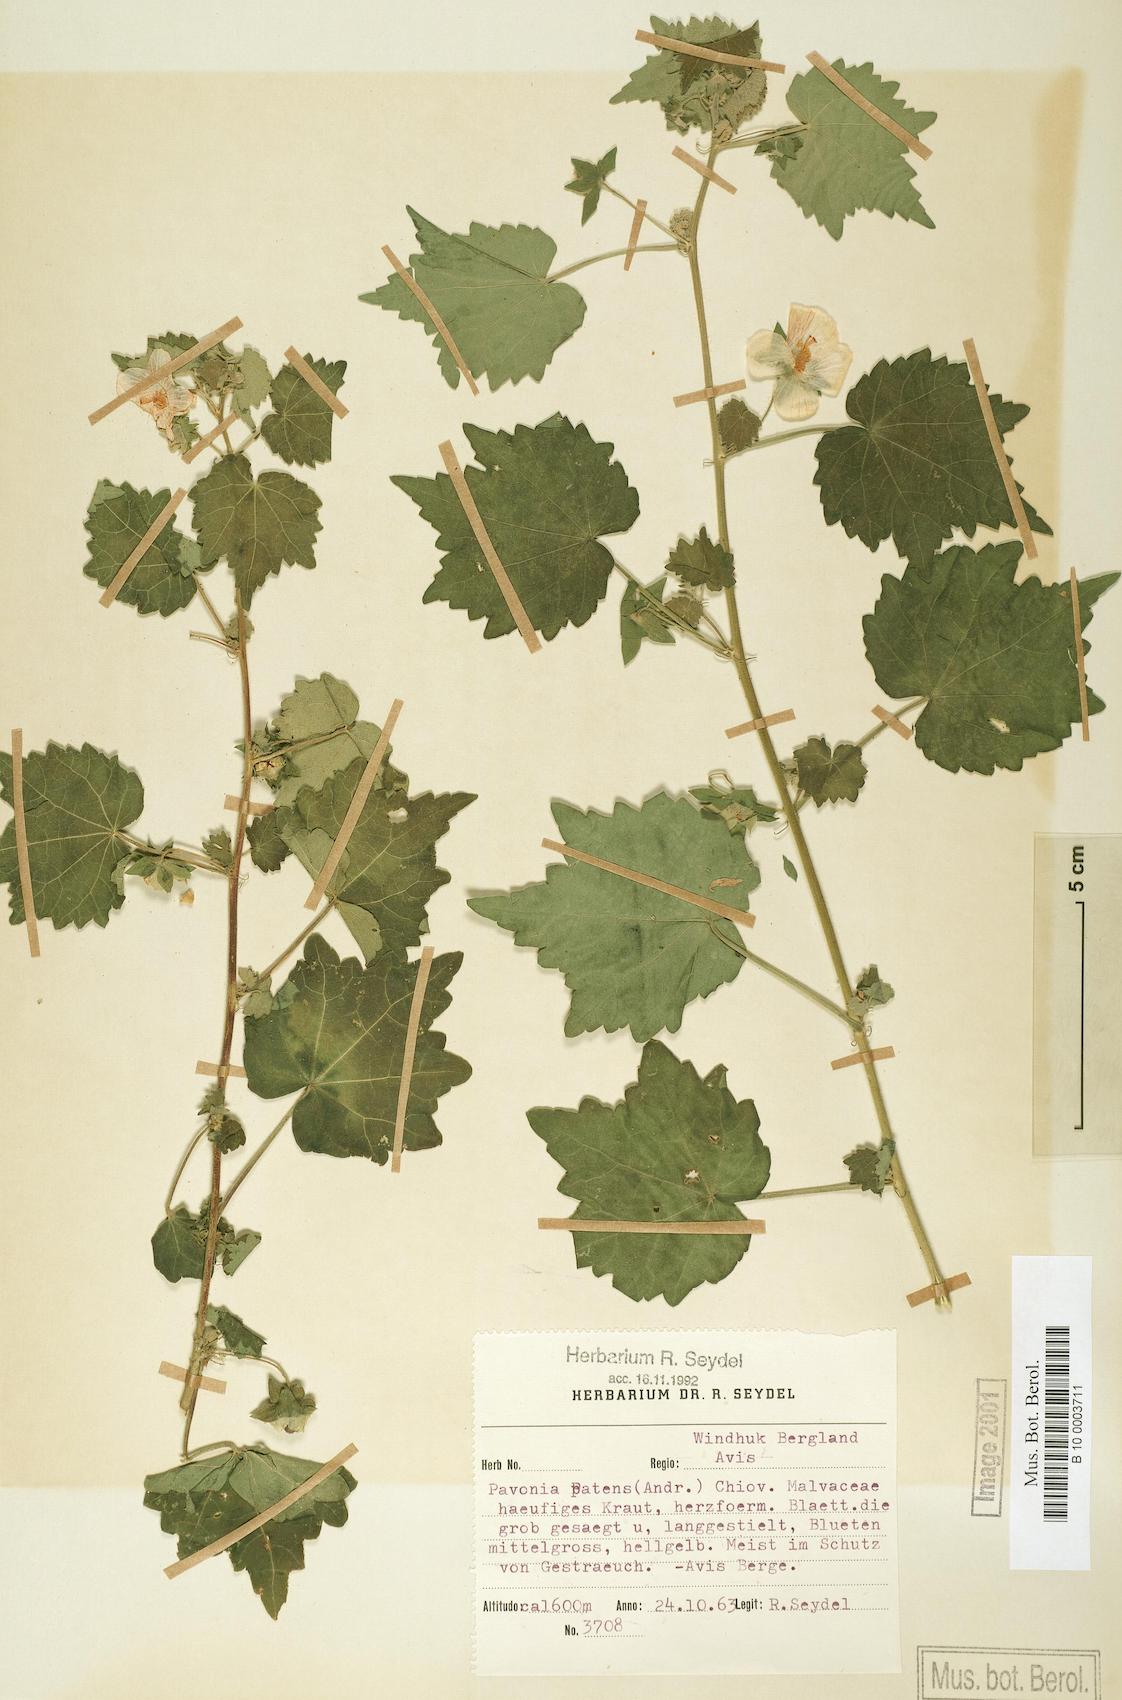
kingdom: Plantae
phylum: Tracheophyta
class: Magnoliopsida
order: Malvales
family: Malvaceae
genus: Abutilon
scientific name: Abutilon mauritianum
